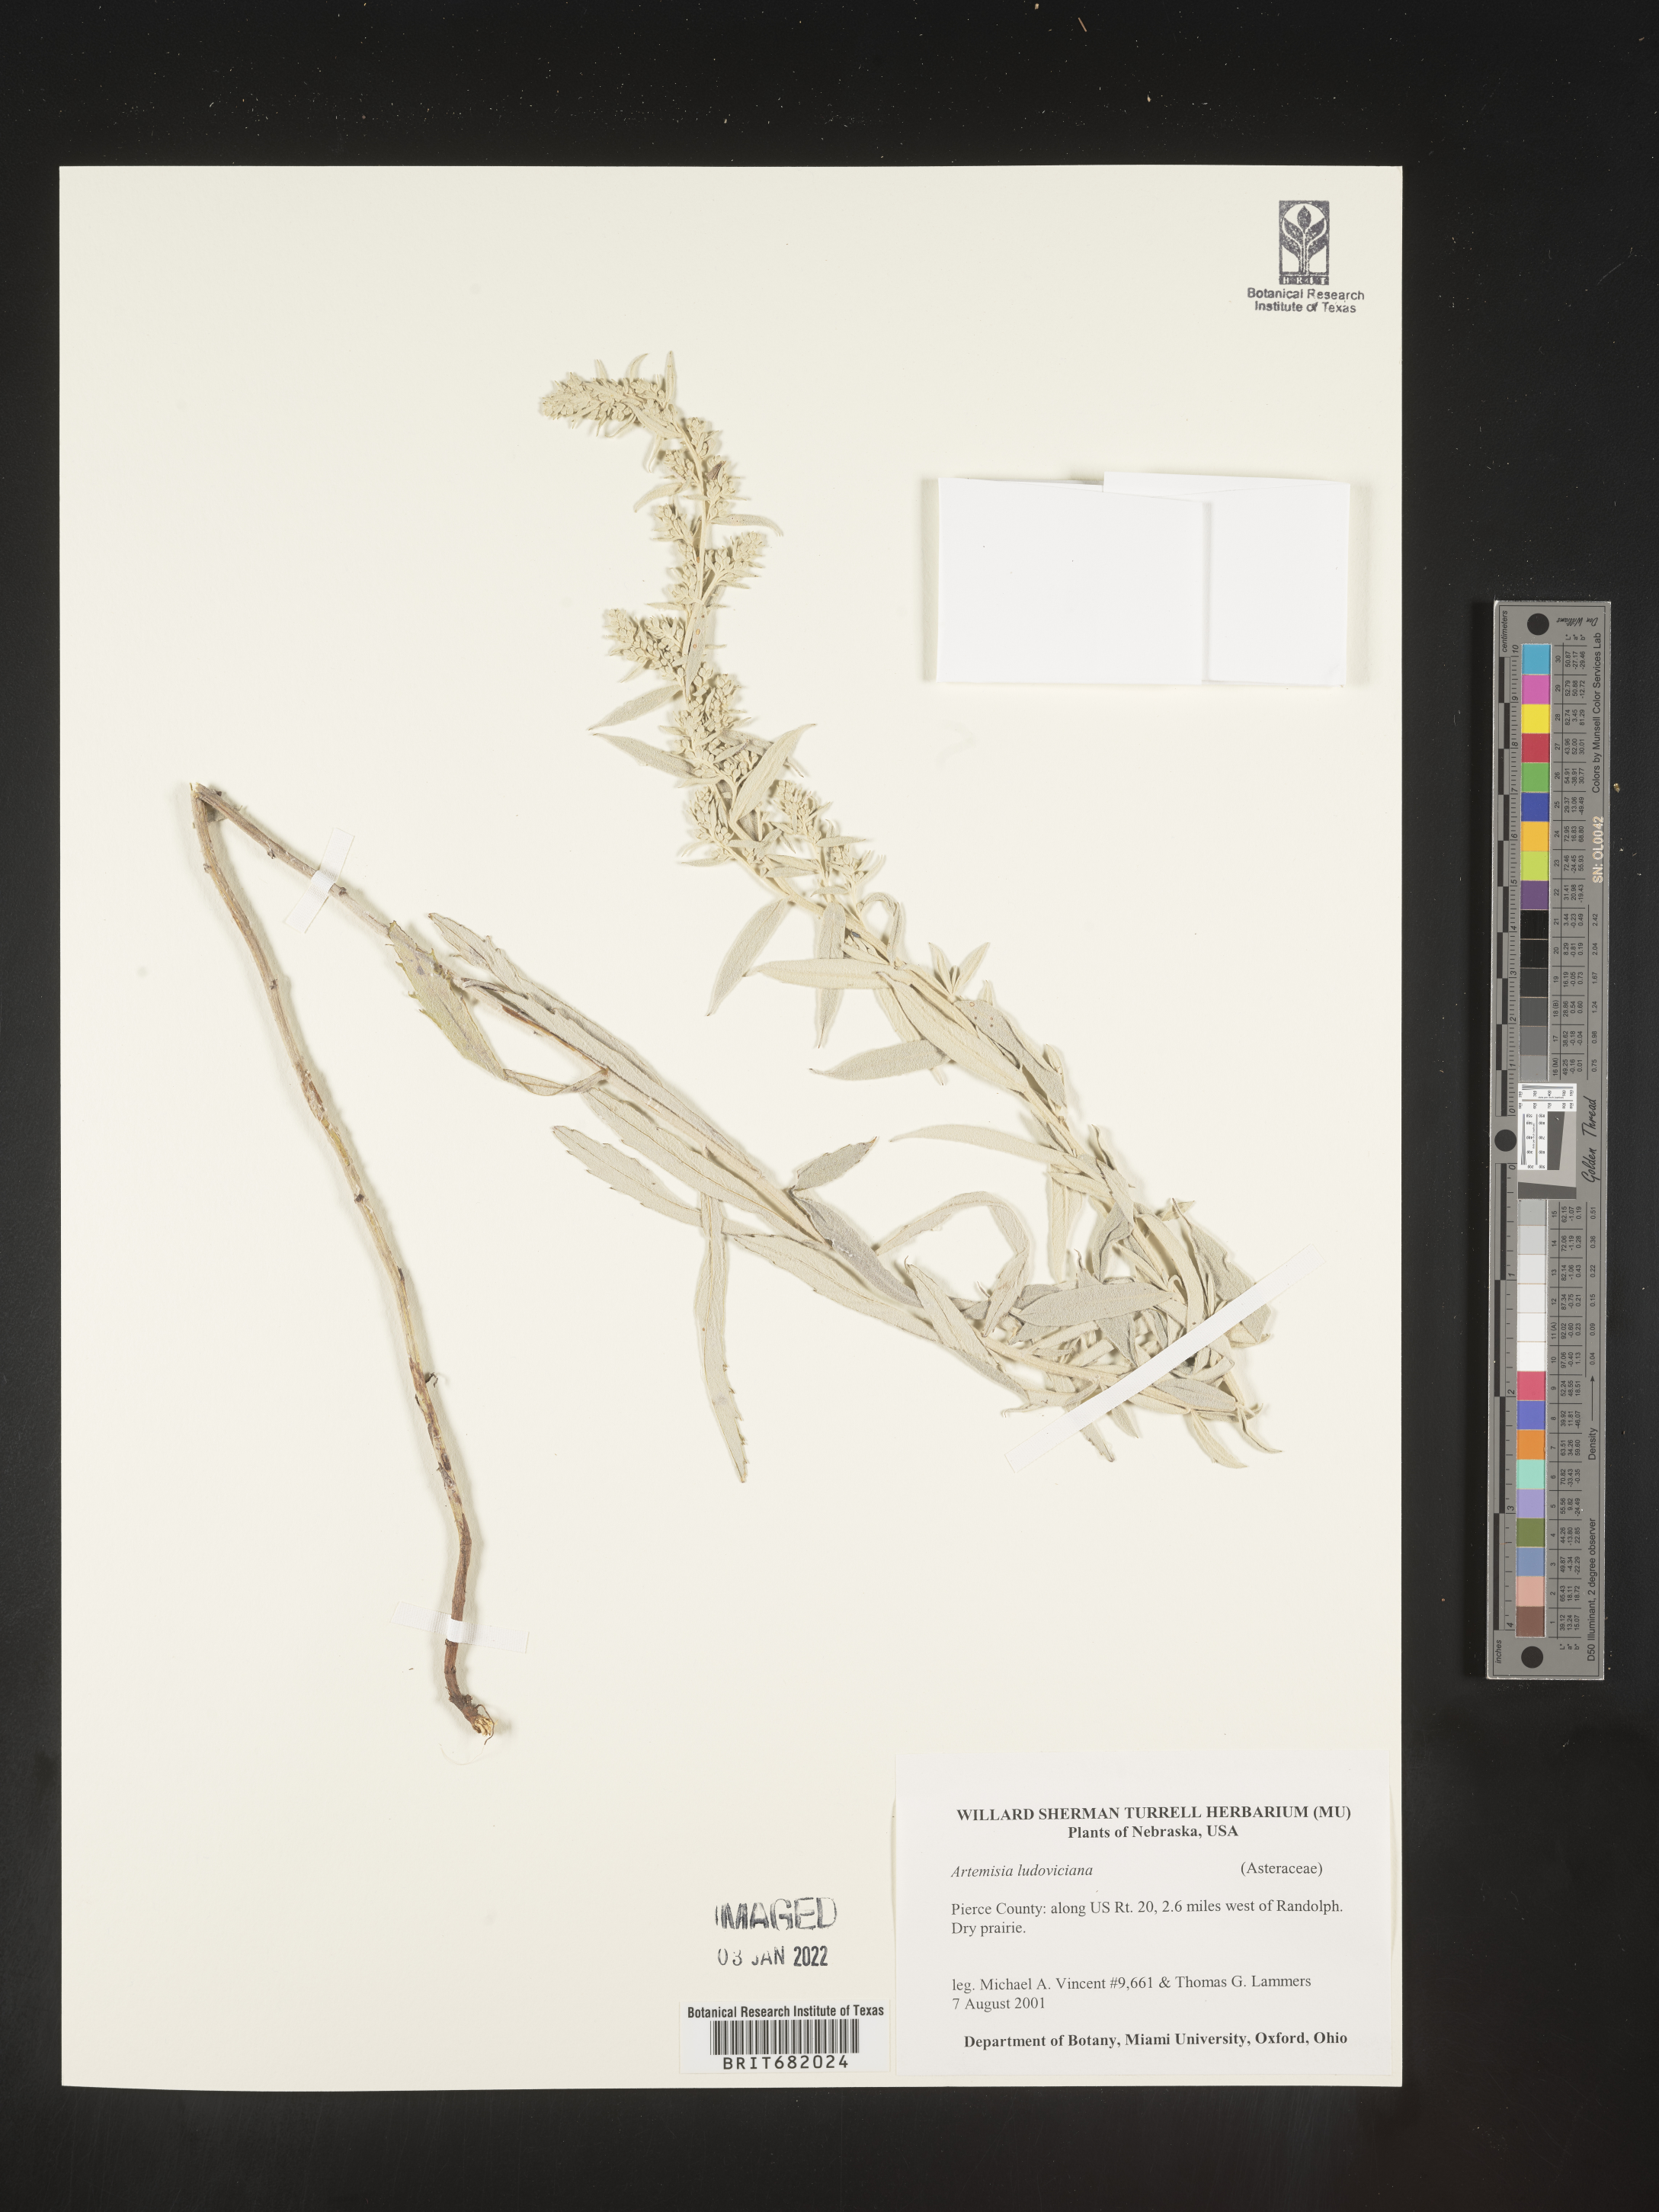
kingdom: Plantae
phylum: Tracheophyta
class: Magnoliopsida
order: Asterales
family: Asteraceae
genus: Artemisia
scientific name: Artemisia ludoviciana
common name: Western mugwort
